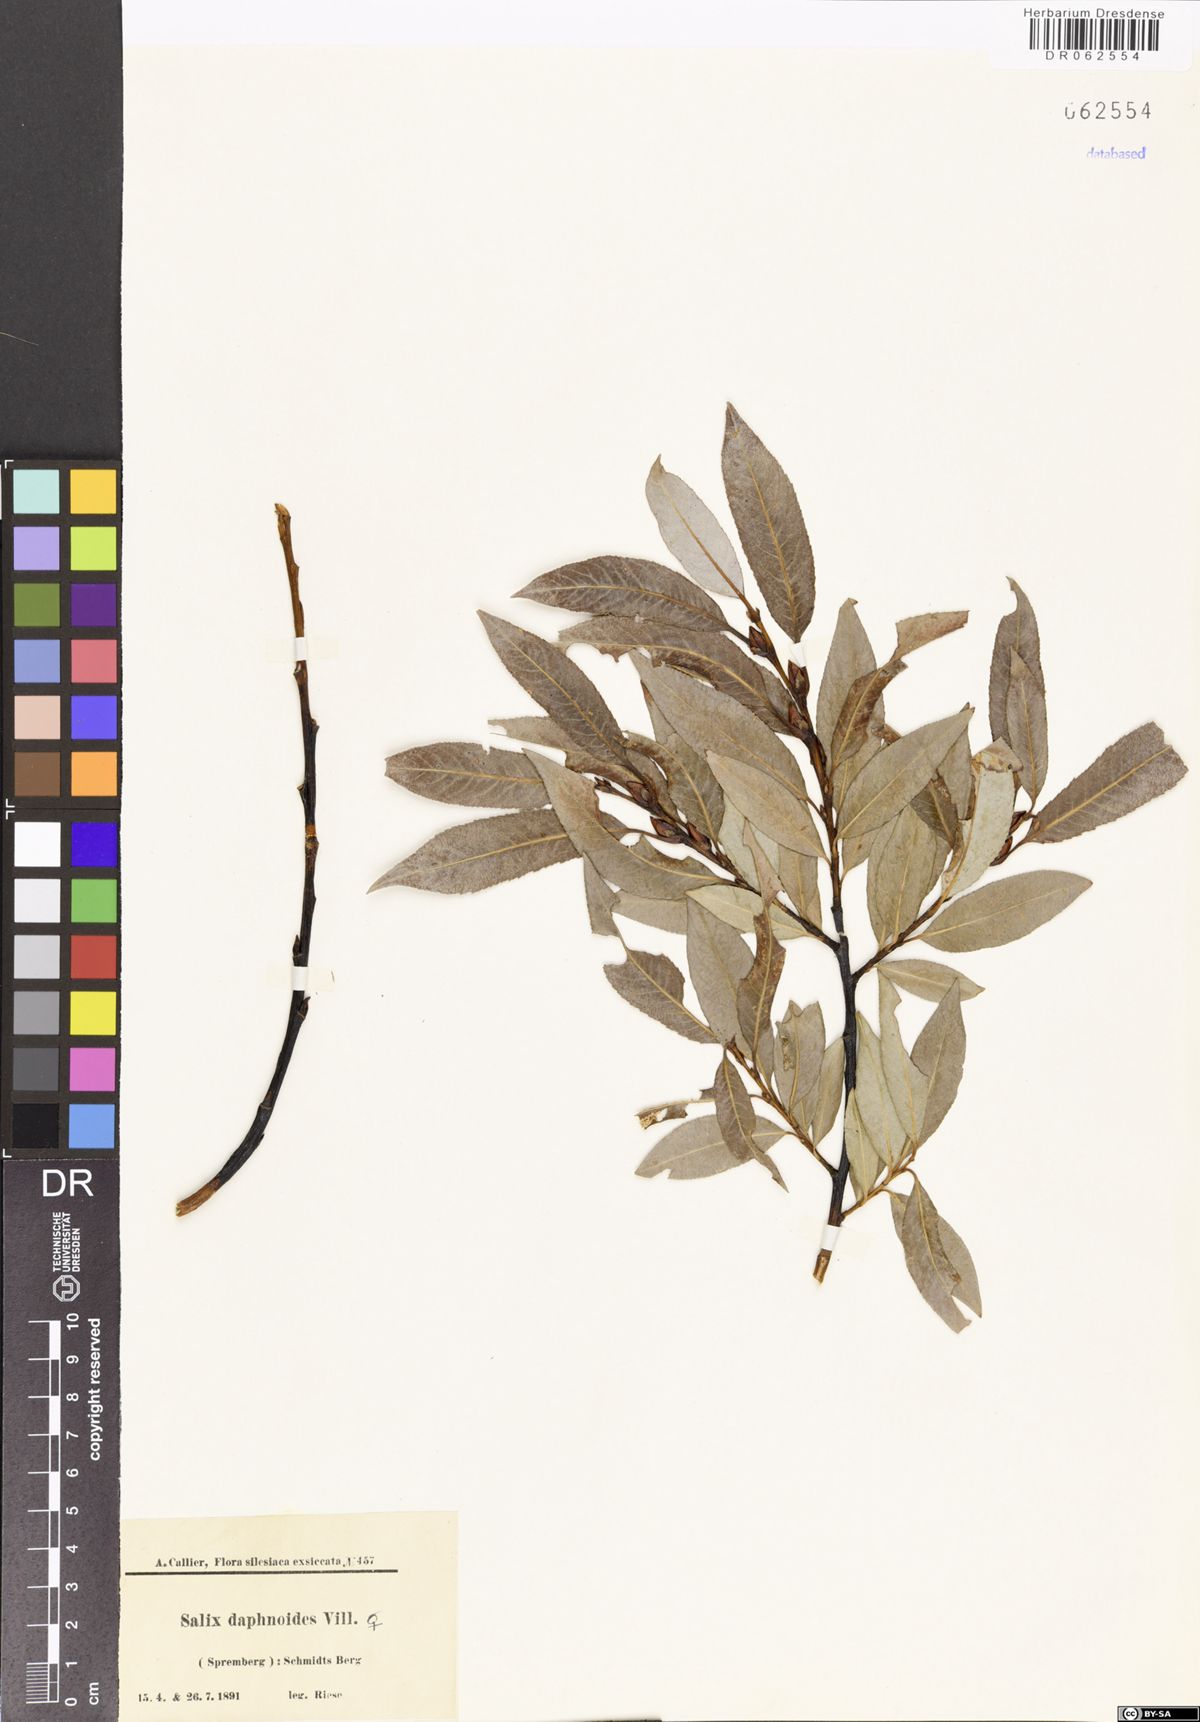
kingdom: Plantae
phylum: Tracheophyta
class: Magnoliopsida
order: Malpighiales
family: Salicaceae
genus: Salix
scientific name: Salix daphnoides
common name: European violet-willow
